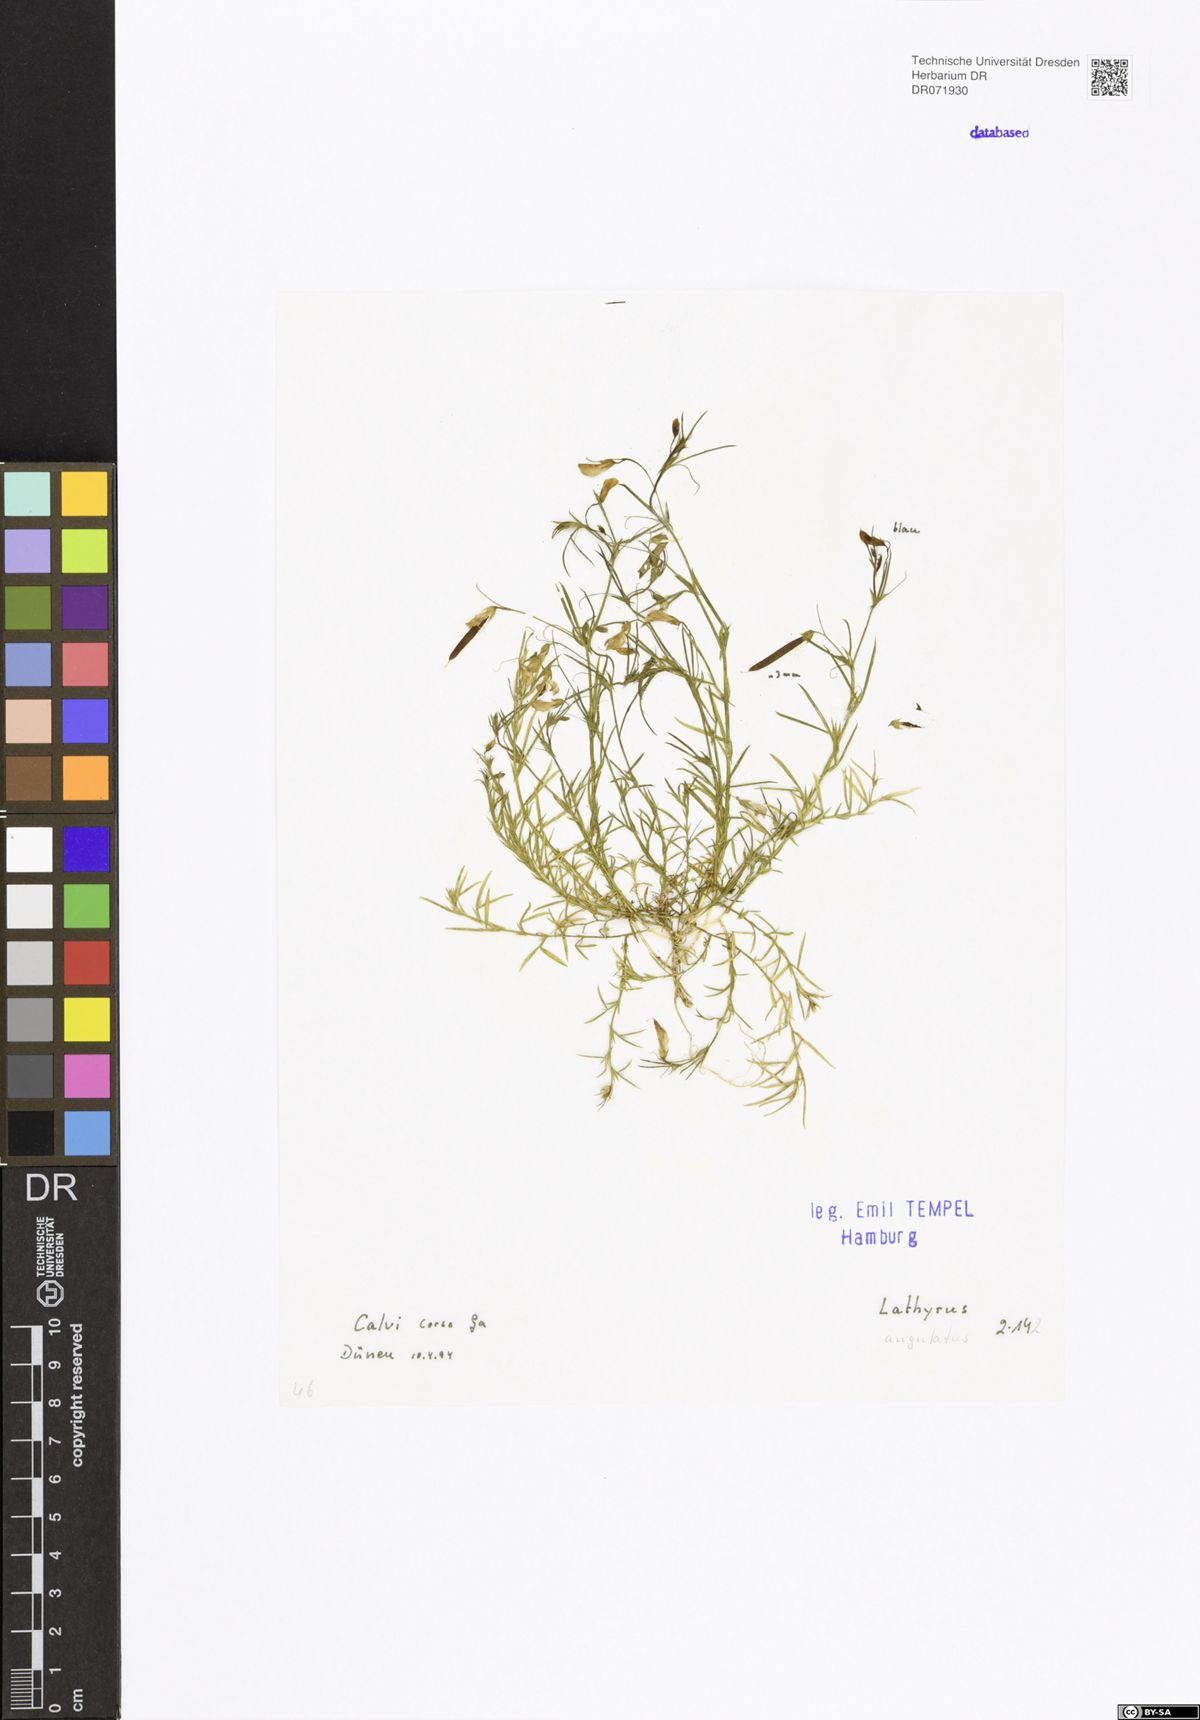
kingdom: Plantae
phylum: Tracheophyta
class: Magnoliopsida
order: Fabales
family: Fabaceae
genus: Lathyrus
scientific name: Lathyrus angulatus
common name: Angular pea
